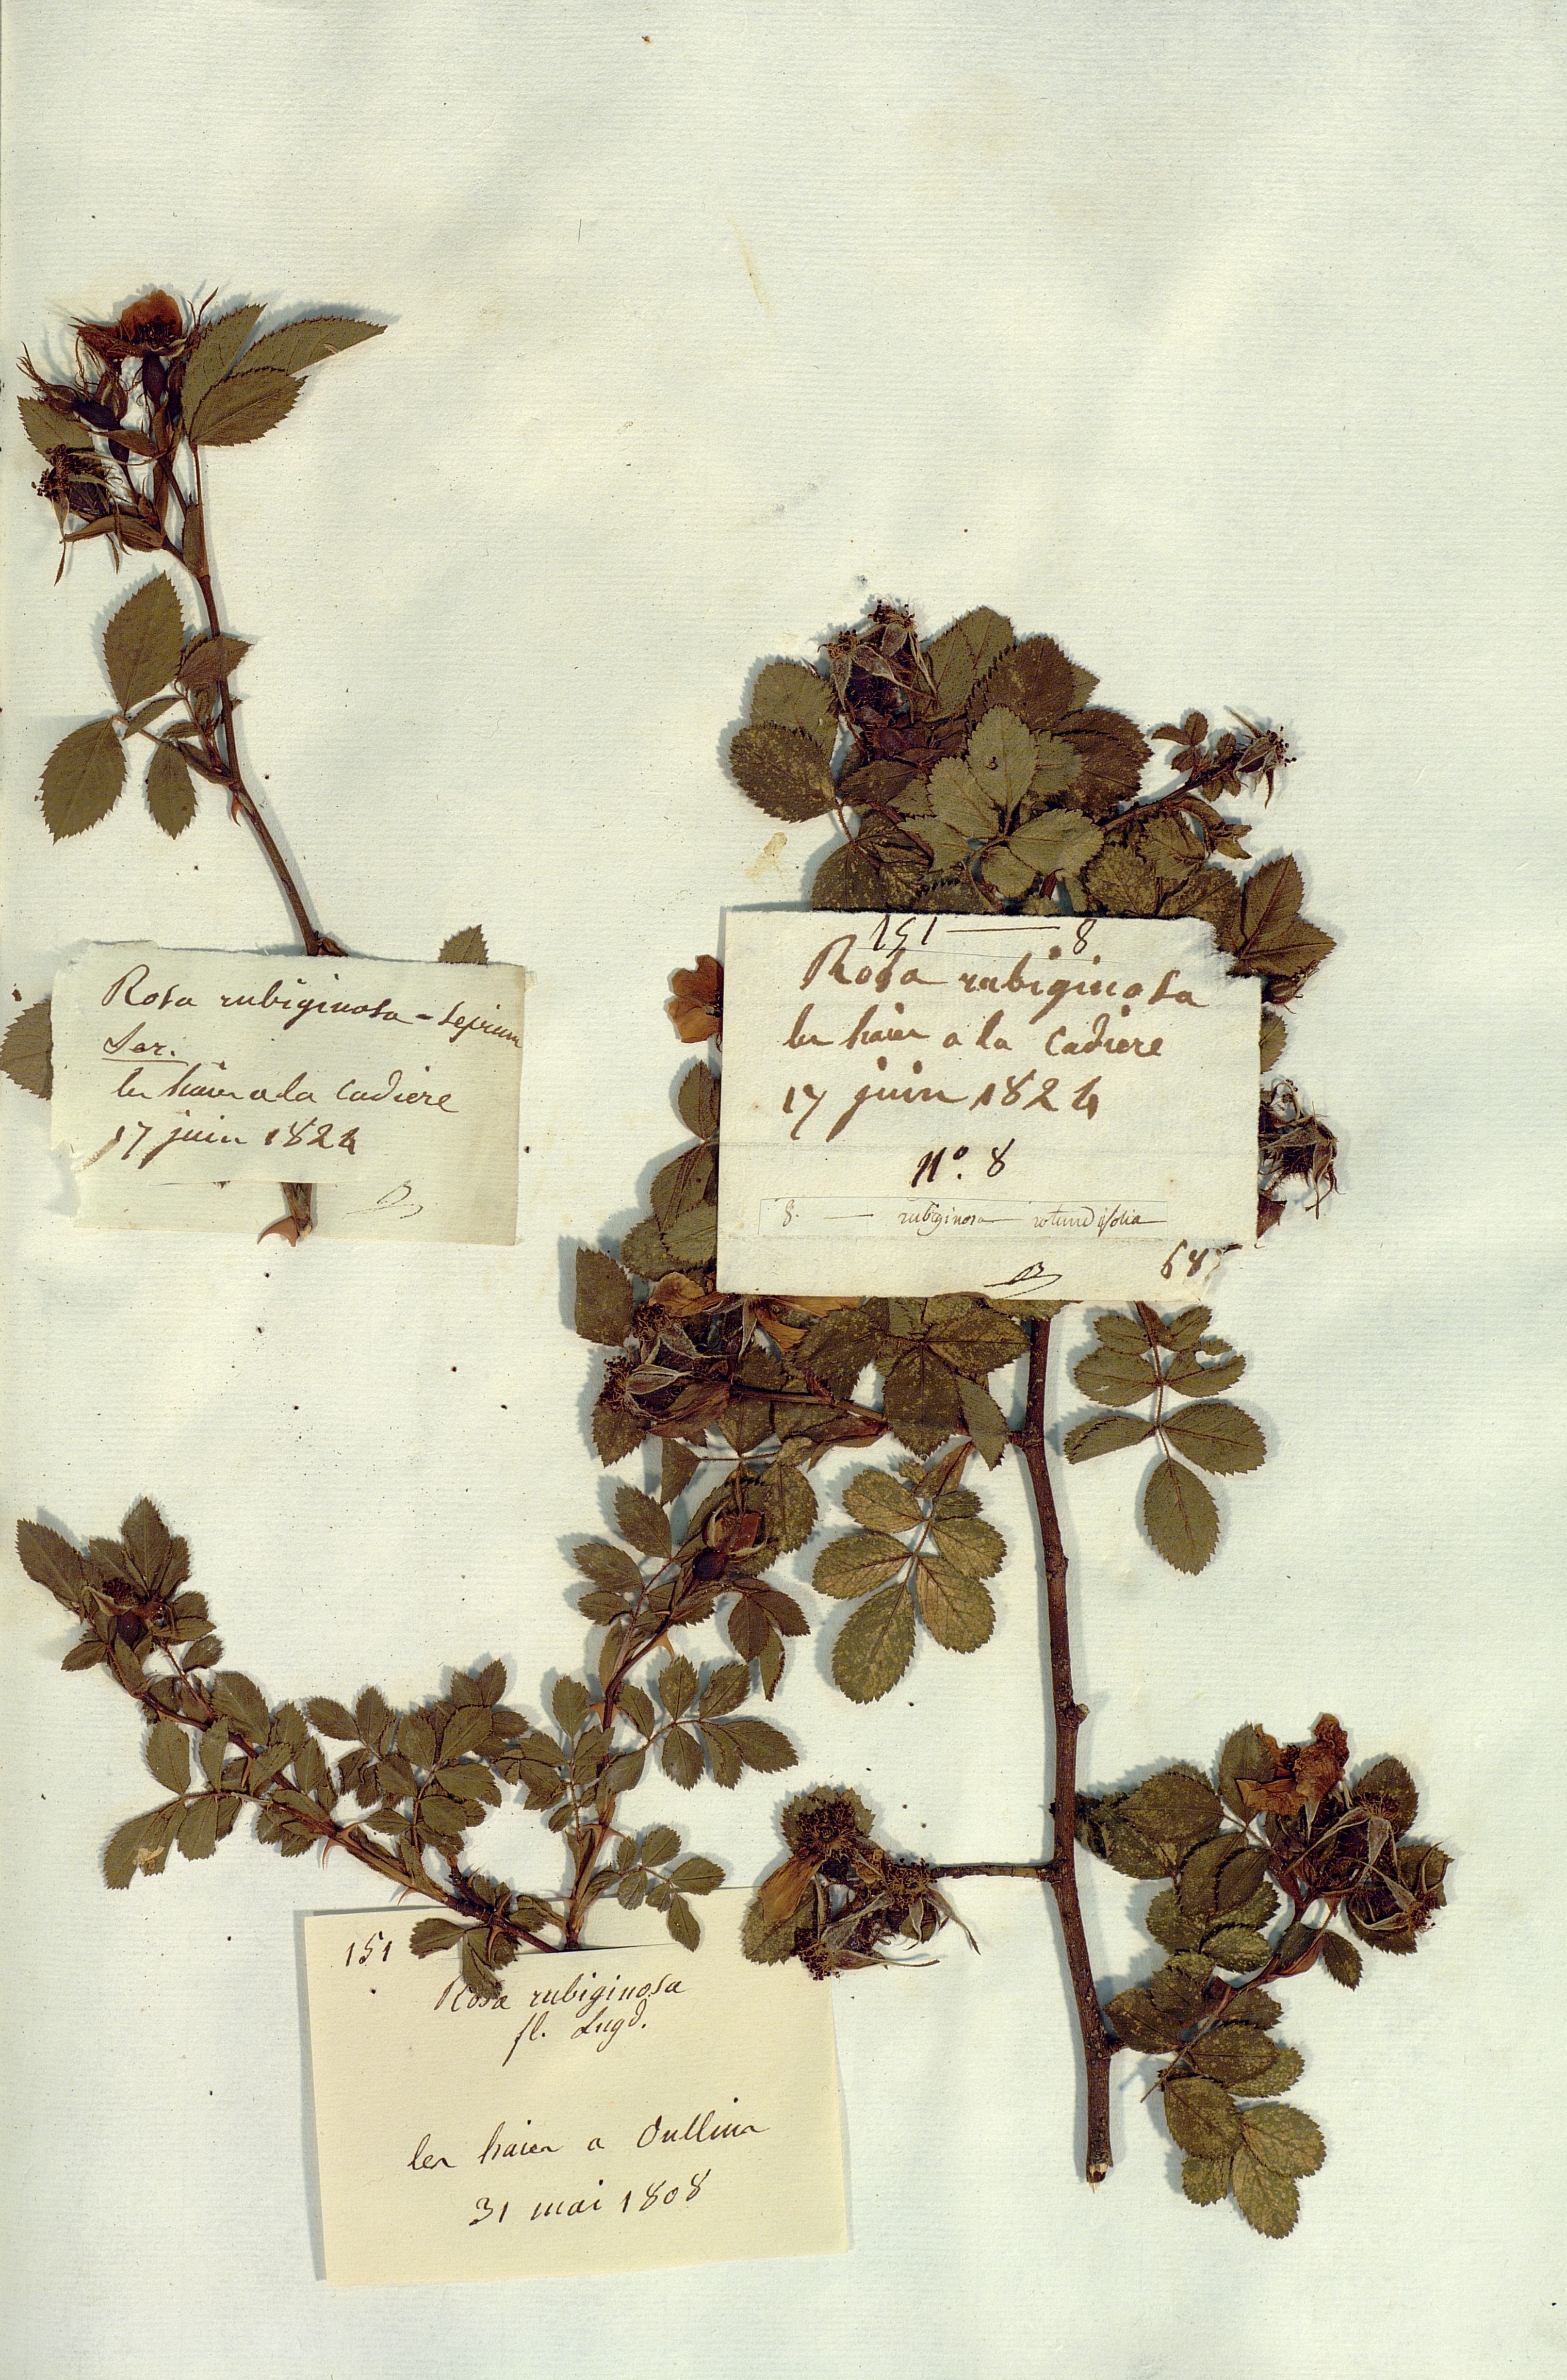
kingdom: Plantae
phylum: Tracheophyta
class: Magnoliopsida
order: Rosales
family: Rosaceae
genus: Rosa
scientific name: Rosa rubiginosa
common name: Sweet-briar
